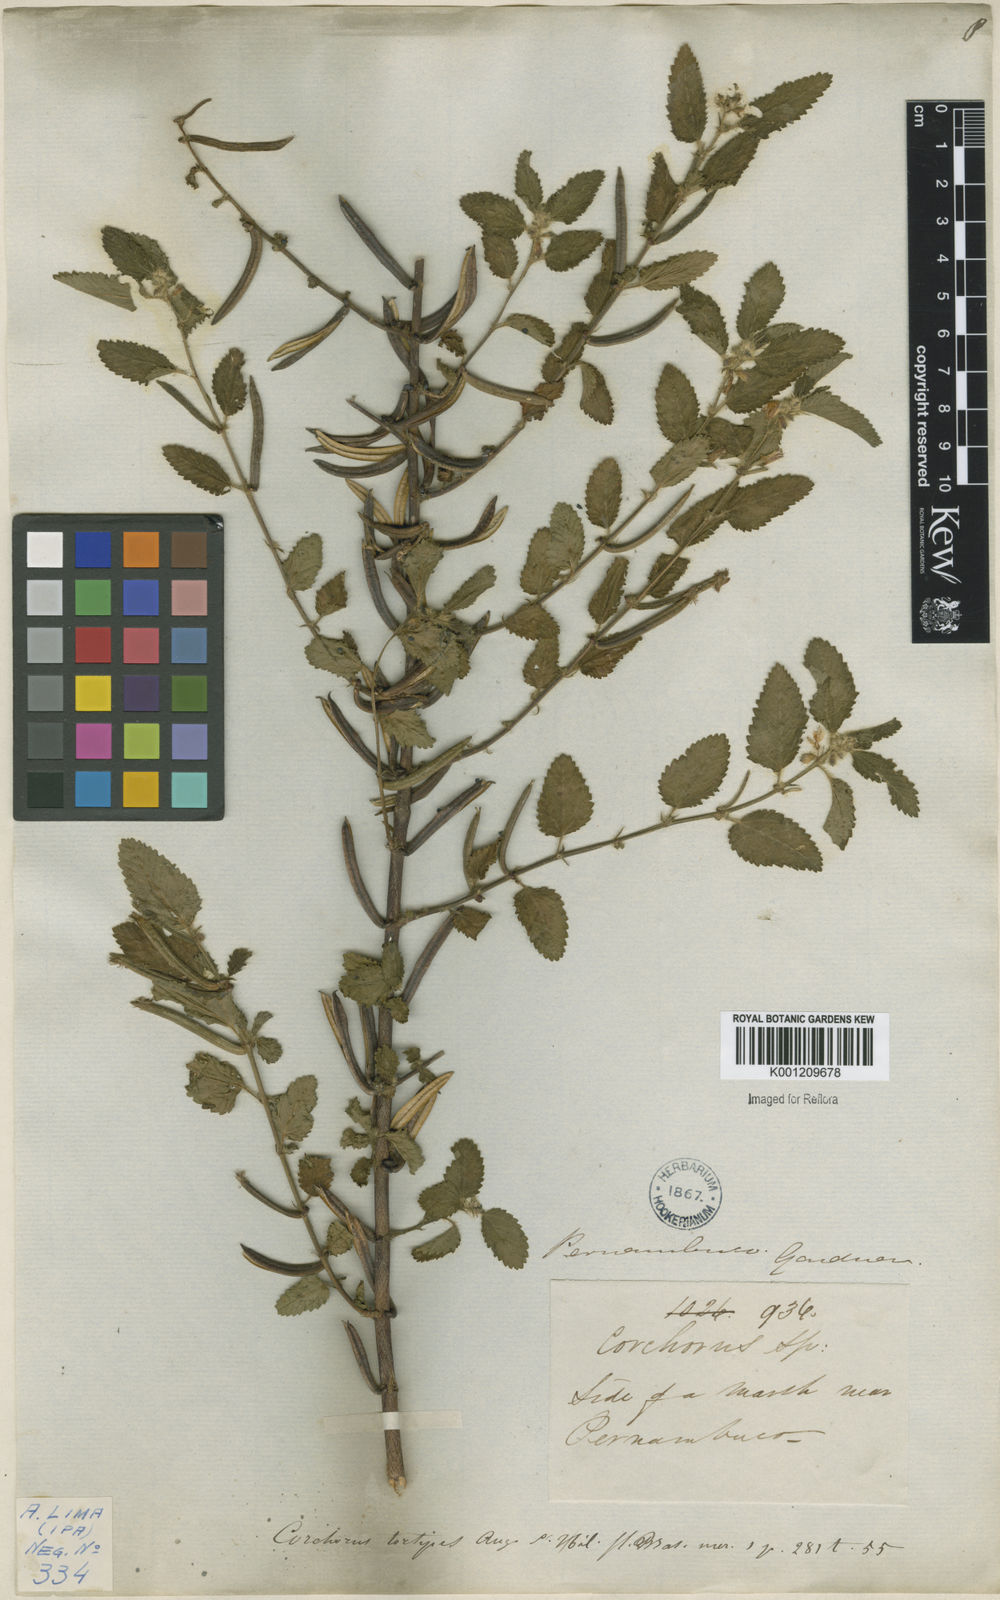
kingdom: Plantae
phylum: Tracheophyta
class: Magnoliopsida
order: Malvales
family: Malvaceae
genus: Corchorus
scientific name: Corchorus hirtus
